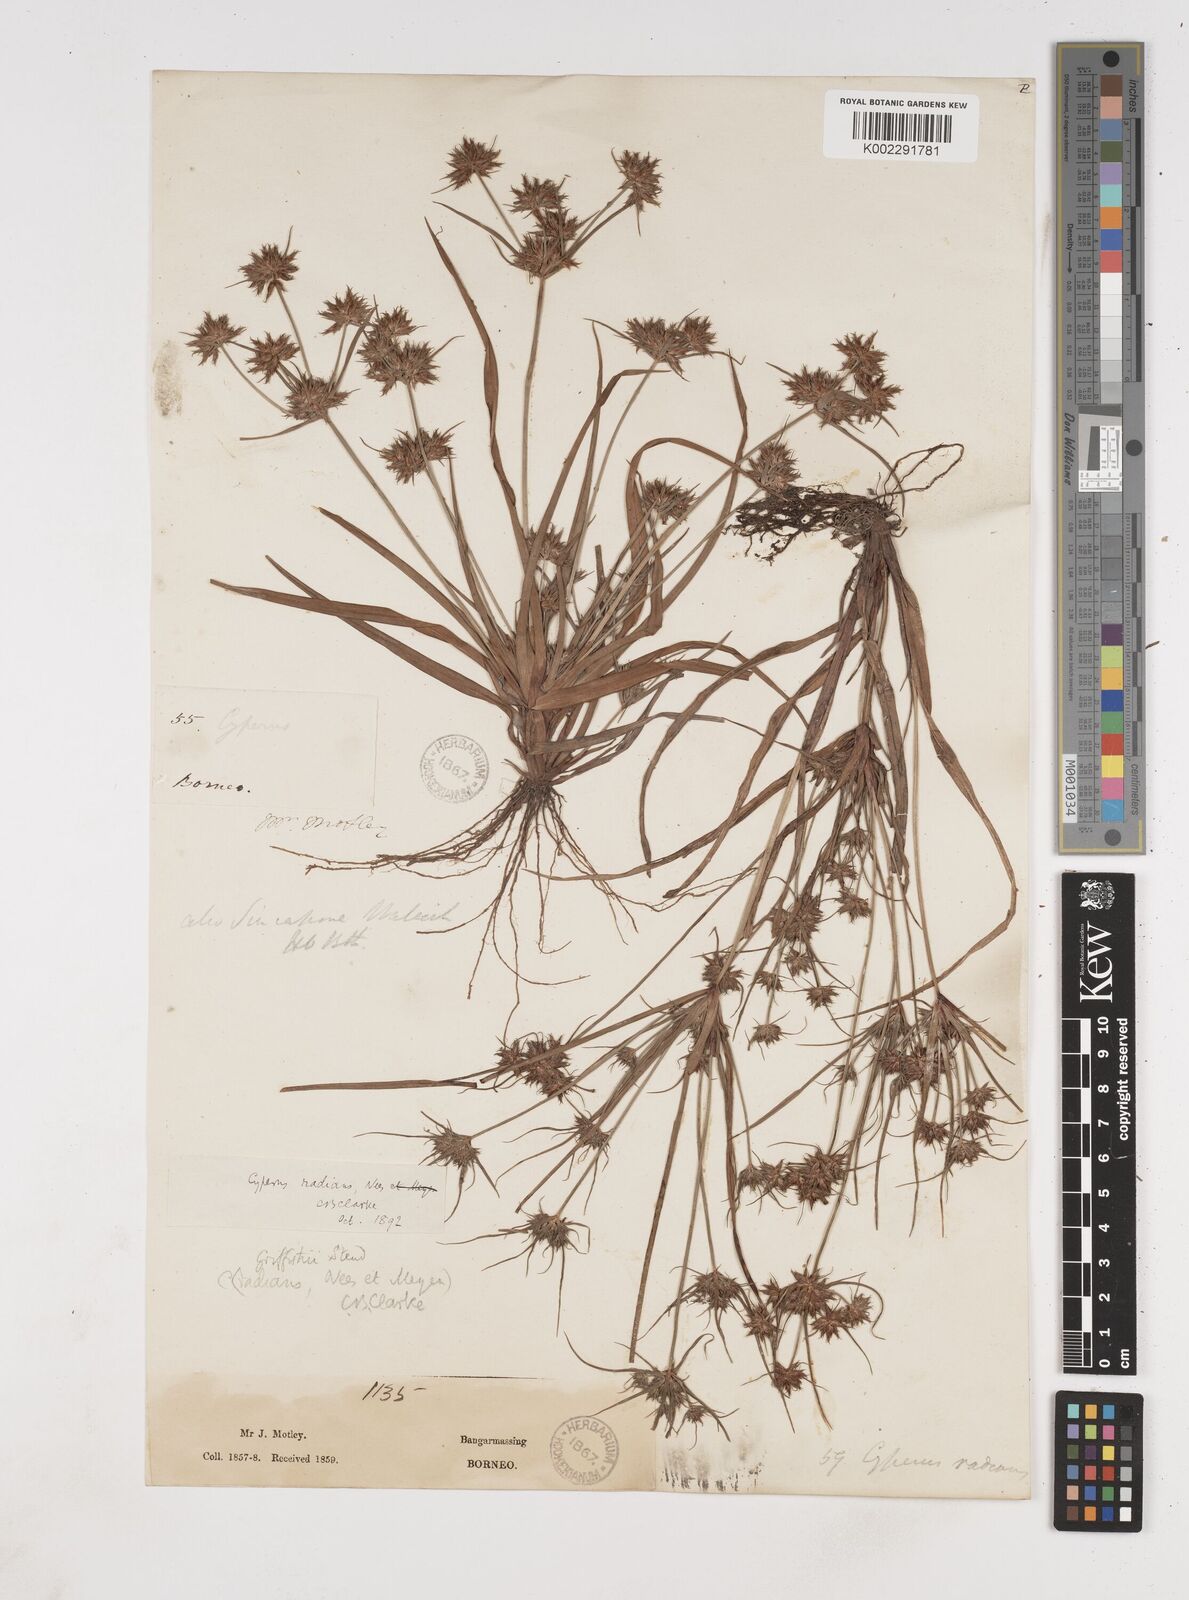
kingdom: Plantae
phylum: Tracheophyta
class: Liliopsida
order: Poales
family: Cyperaceae
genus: Cyperus
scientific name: Cyperus radians
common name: Short-stem cyperus
